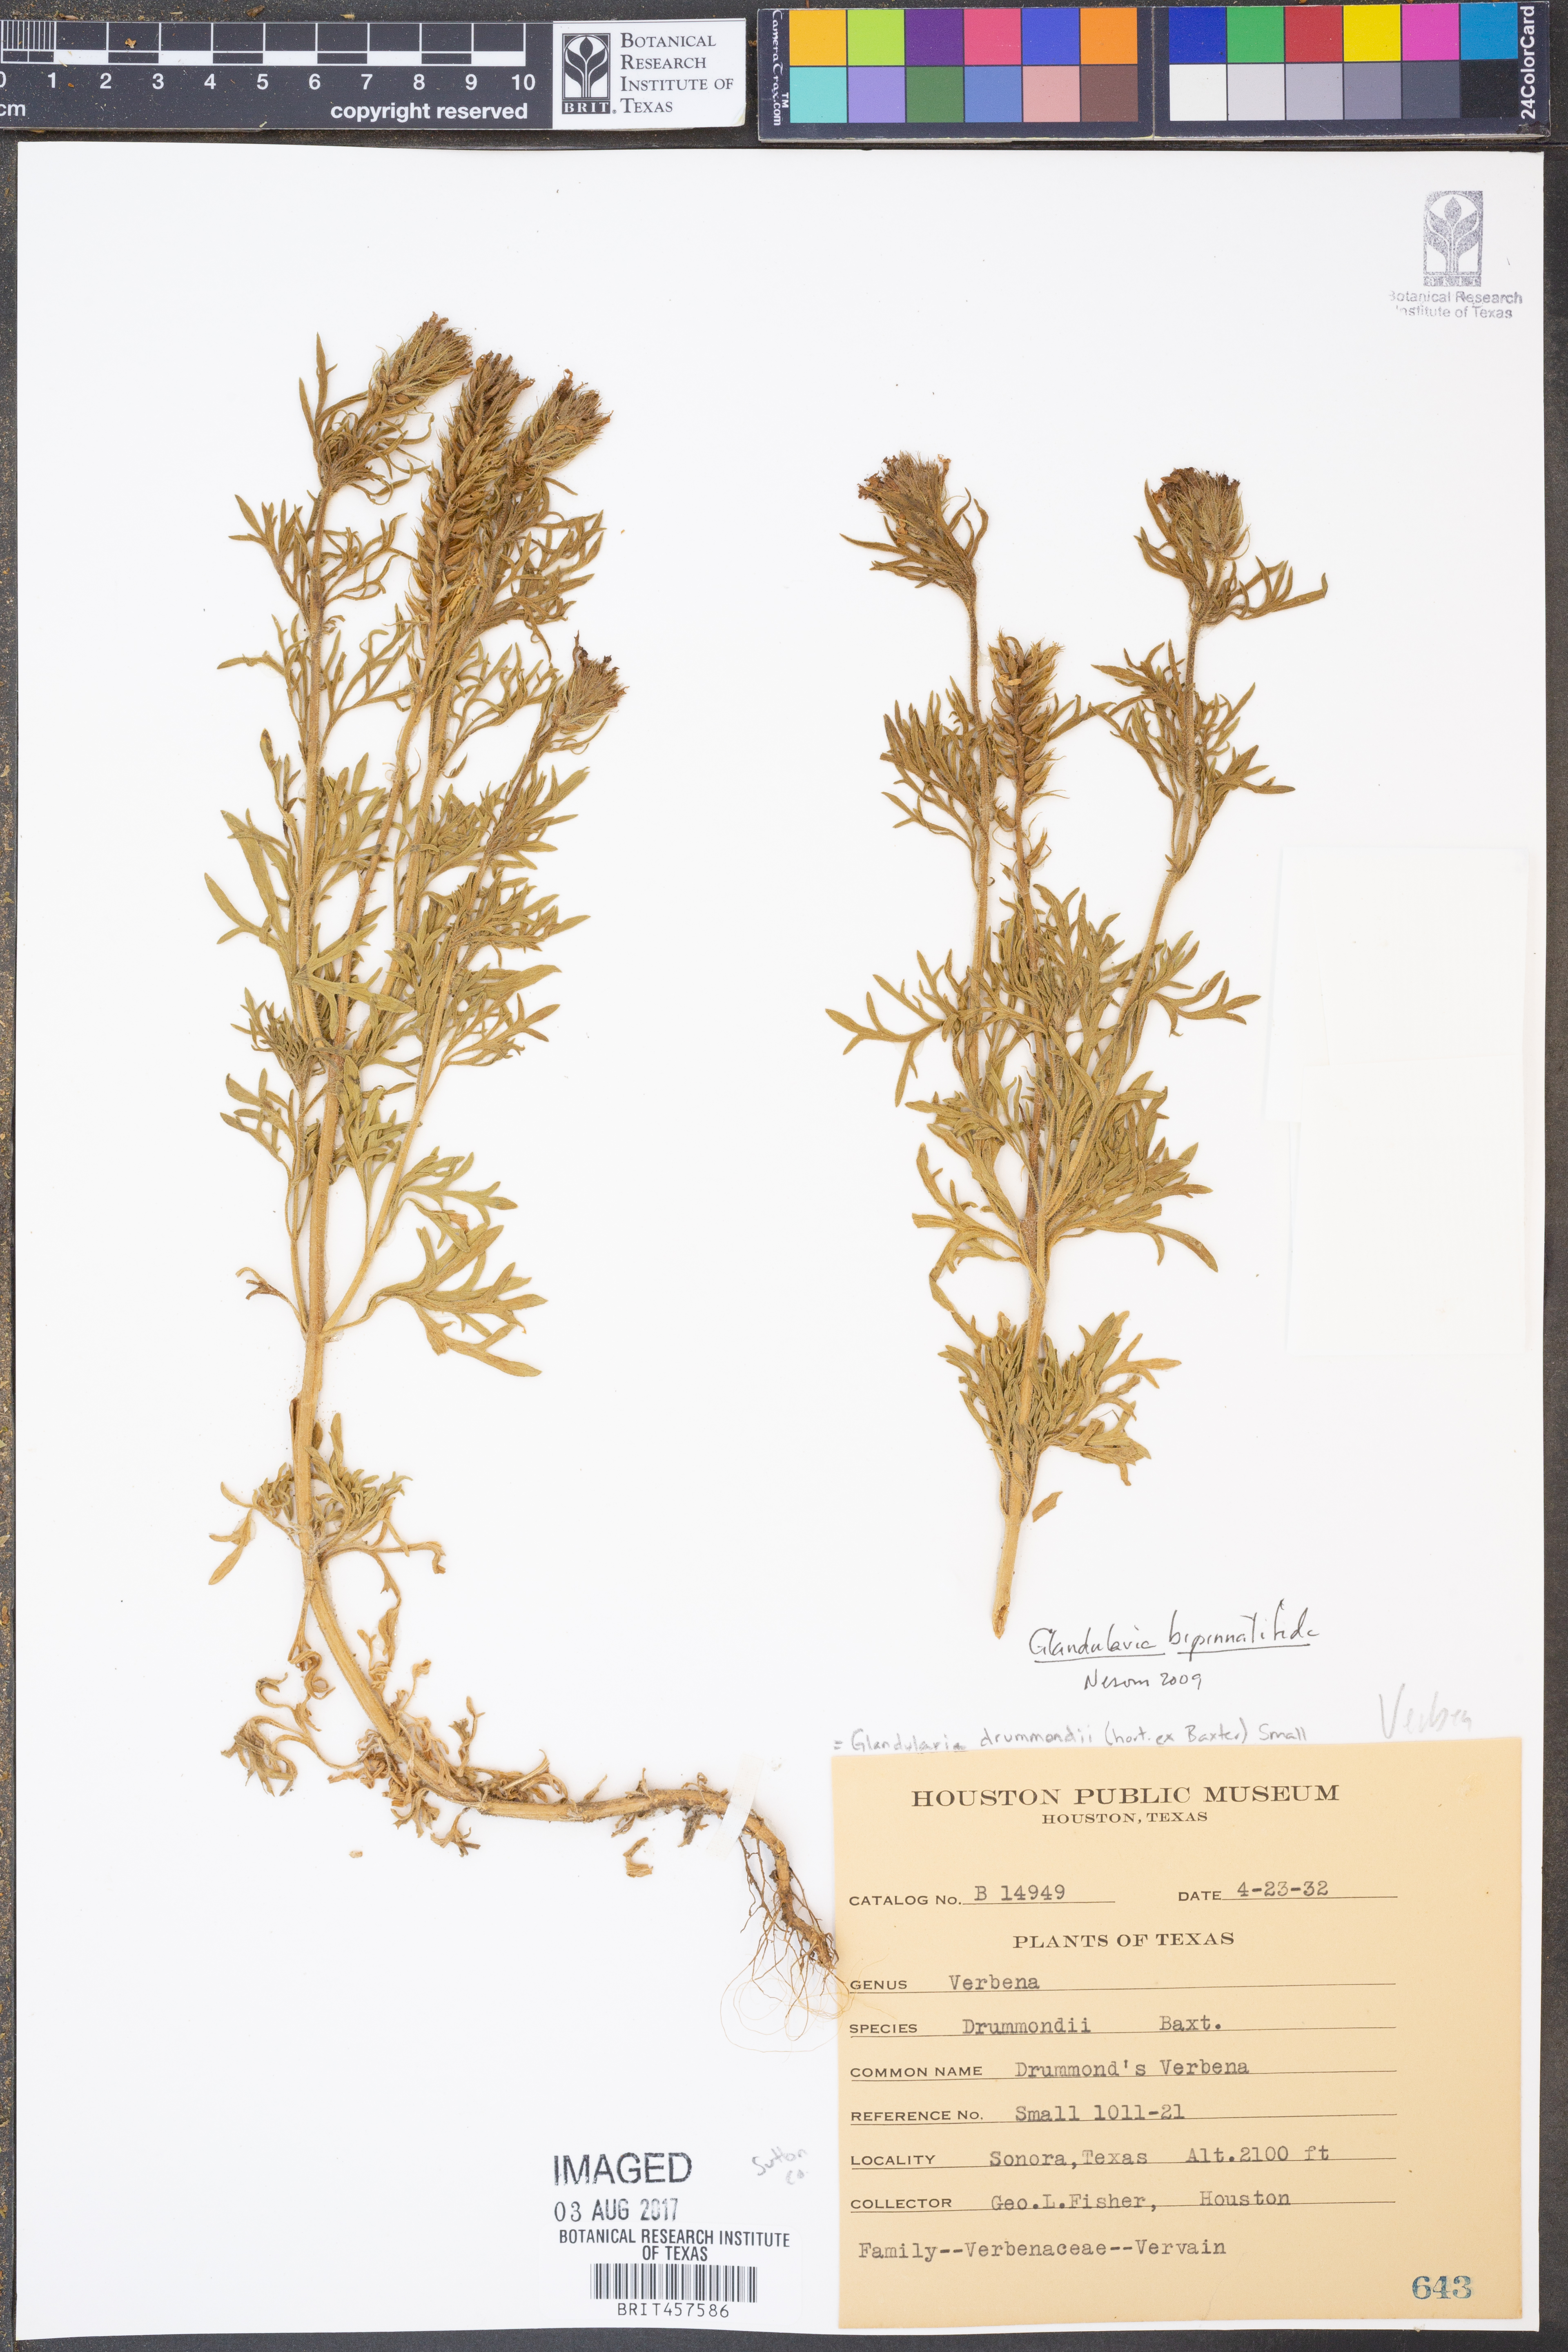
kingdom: Plantae
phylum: Tracheophyta
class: Magnoliopsida
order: Lamiales
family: Verbenaceae
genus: Verbena
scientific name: Verbena canadensis
